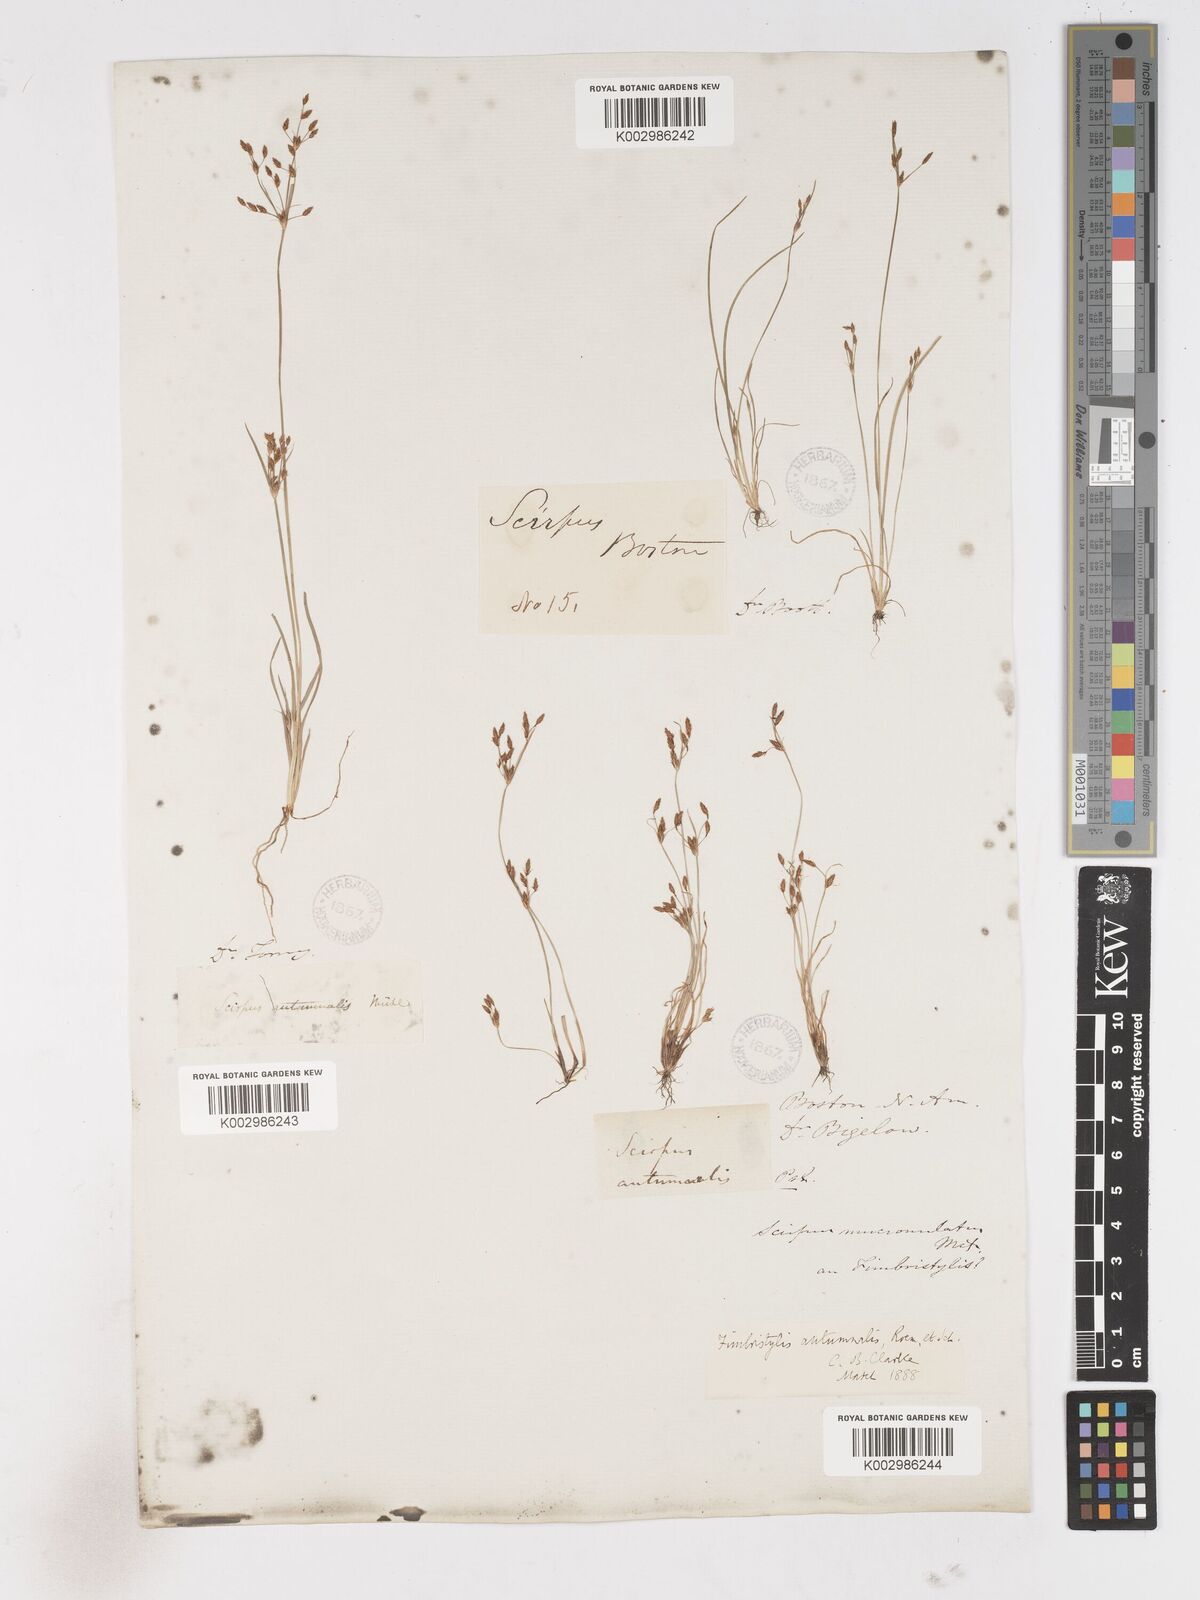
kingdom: Plantae
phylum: Tracheophyta
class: Liliopsida
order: Poales
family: Cyperaceae
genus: Fimbristylis
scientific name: Fimbristylis autumnalis
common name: Slender fimbristylis
